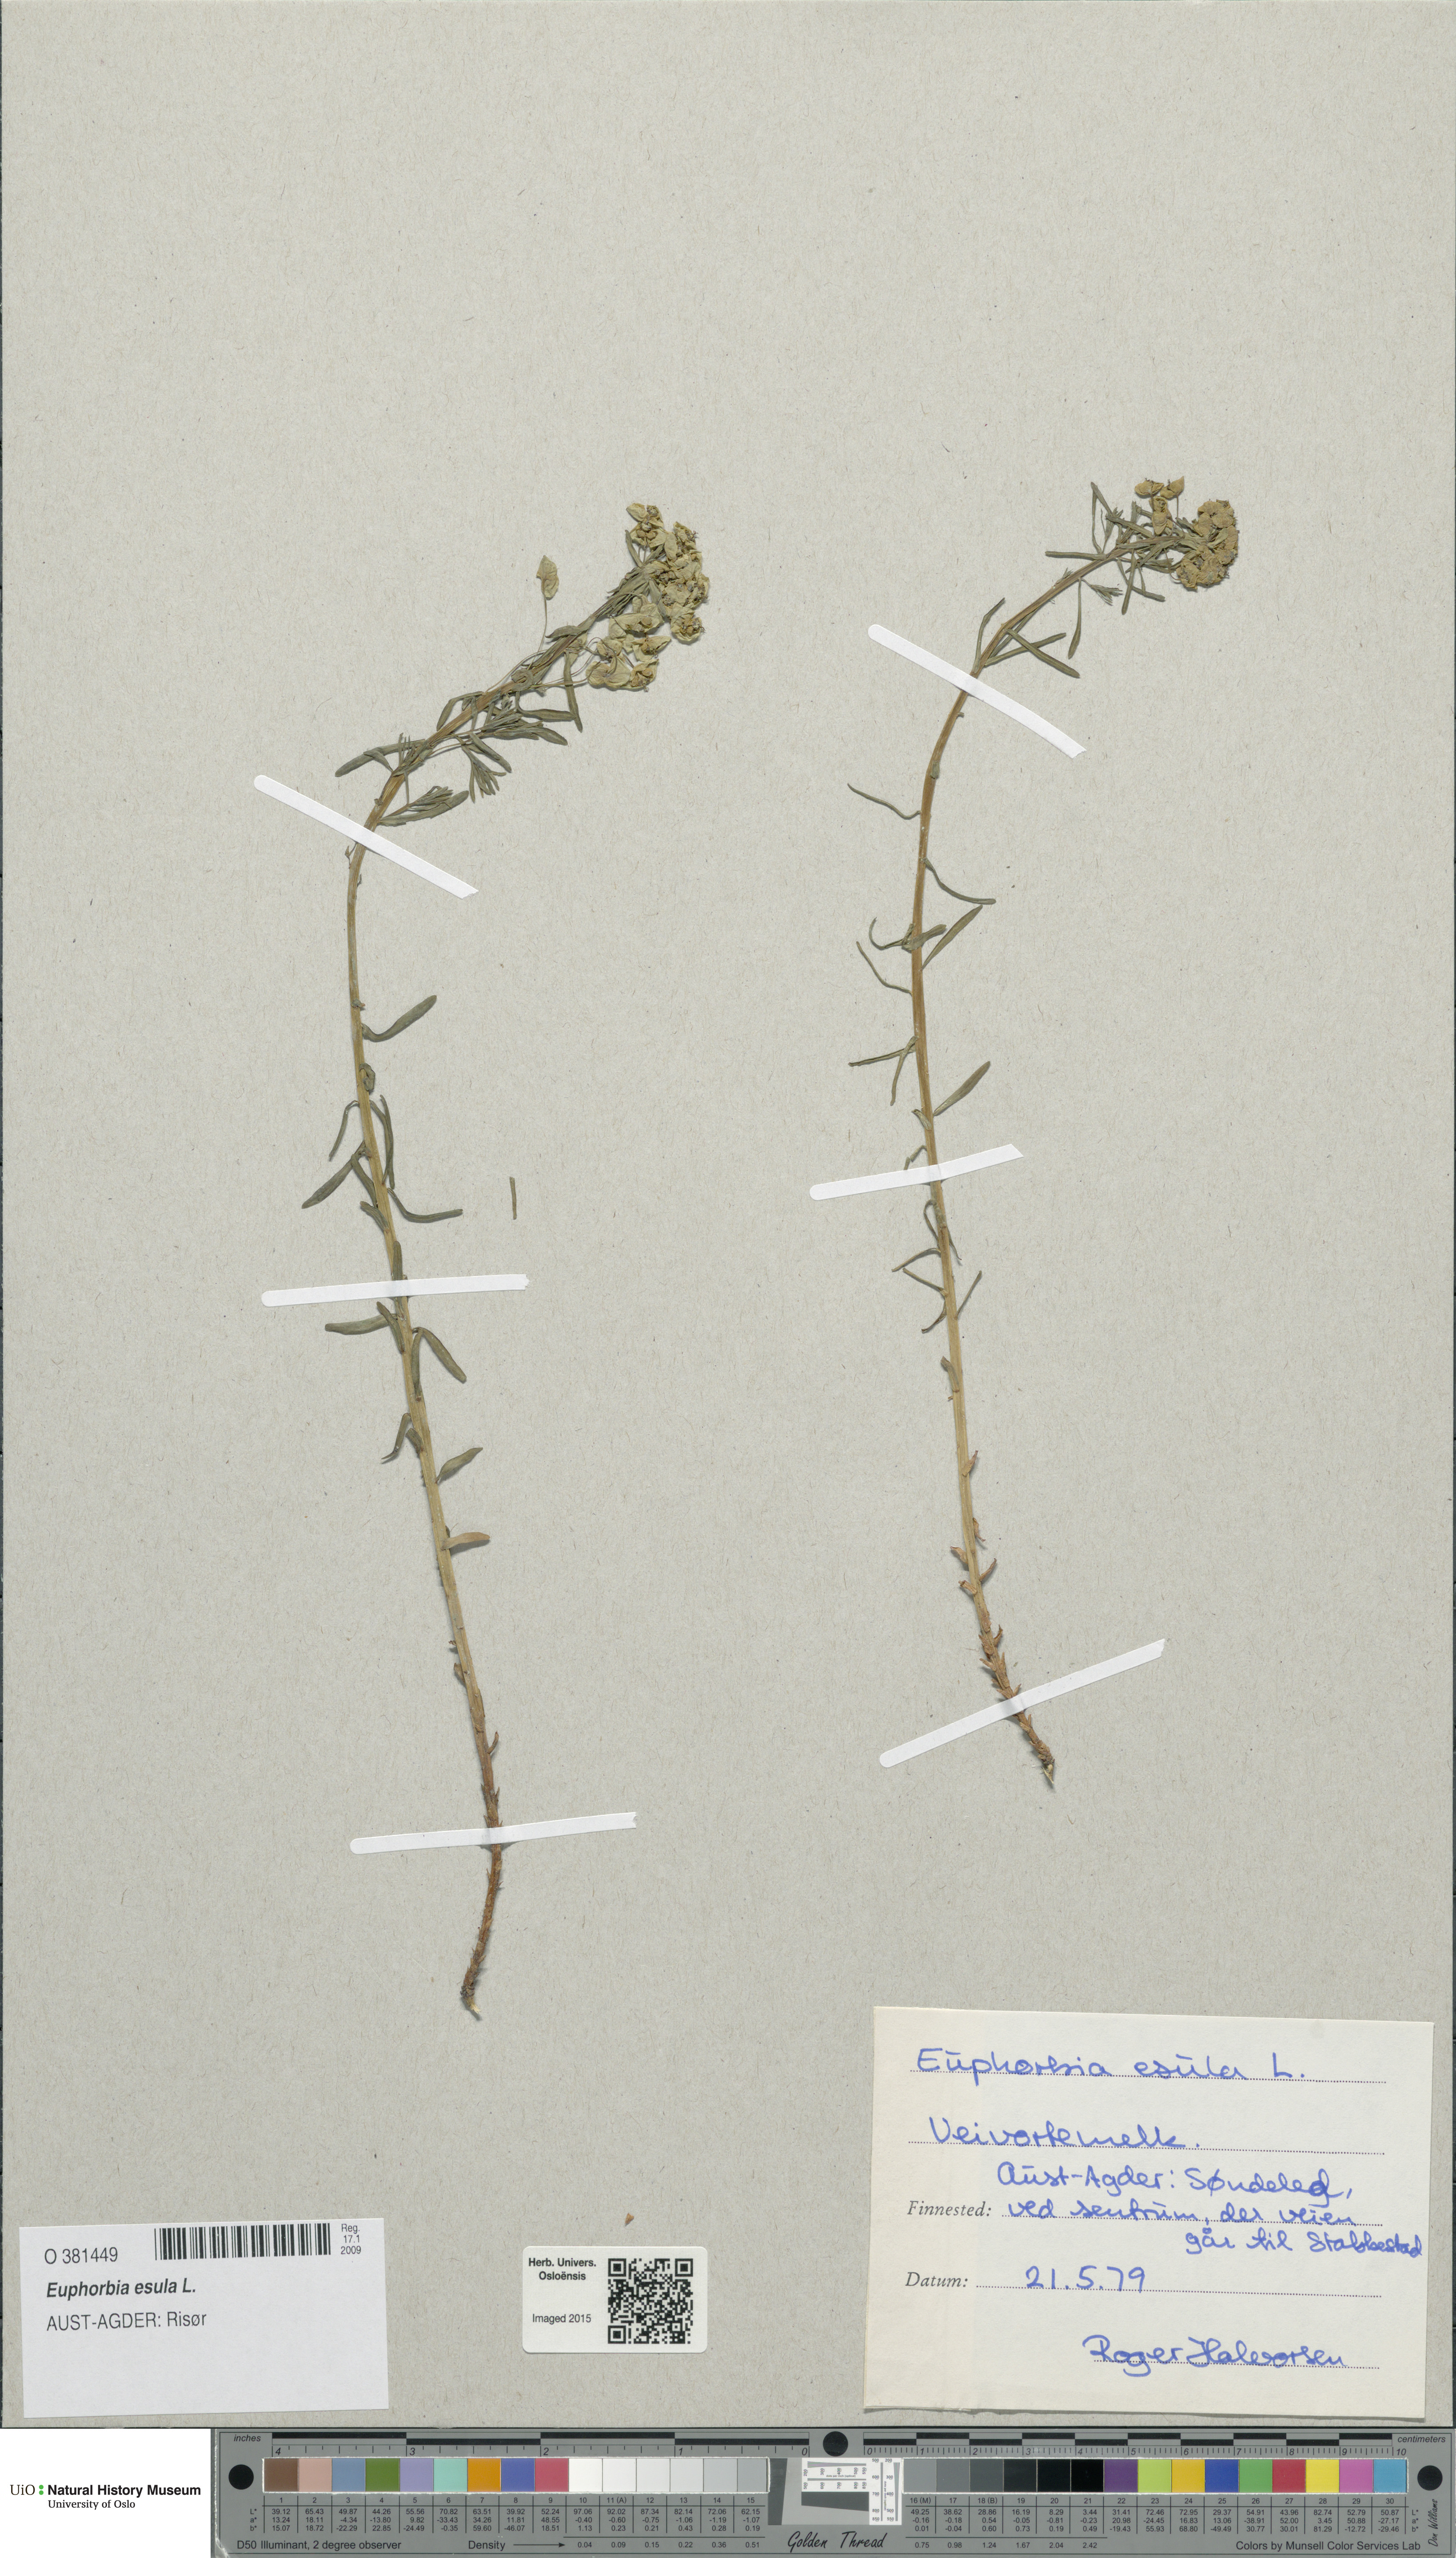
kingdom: Plantae
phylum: Tracheophyta
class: Magnoliopsida
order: Malpighiales
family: Euphorbiaceae
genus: Euphorbia
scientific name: Euphorbia esula
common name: Leafy spurge
